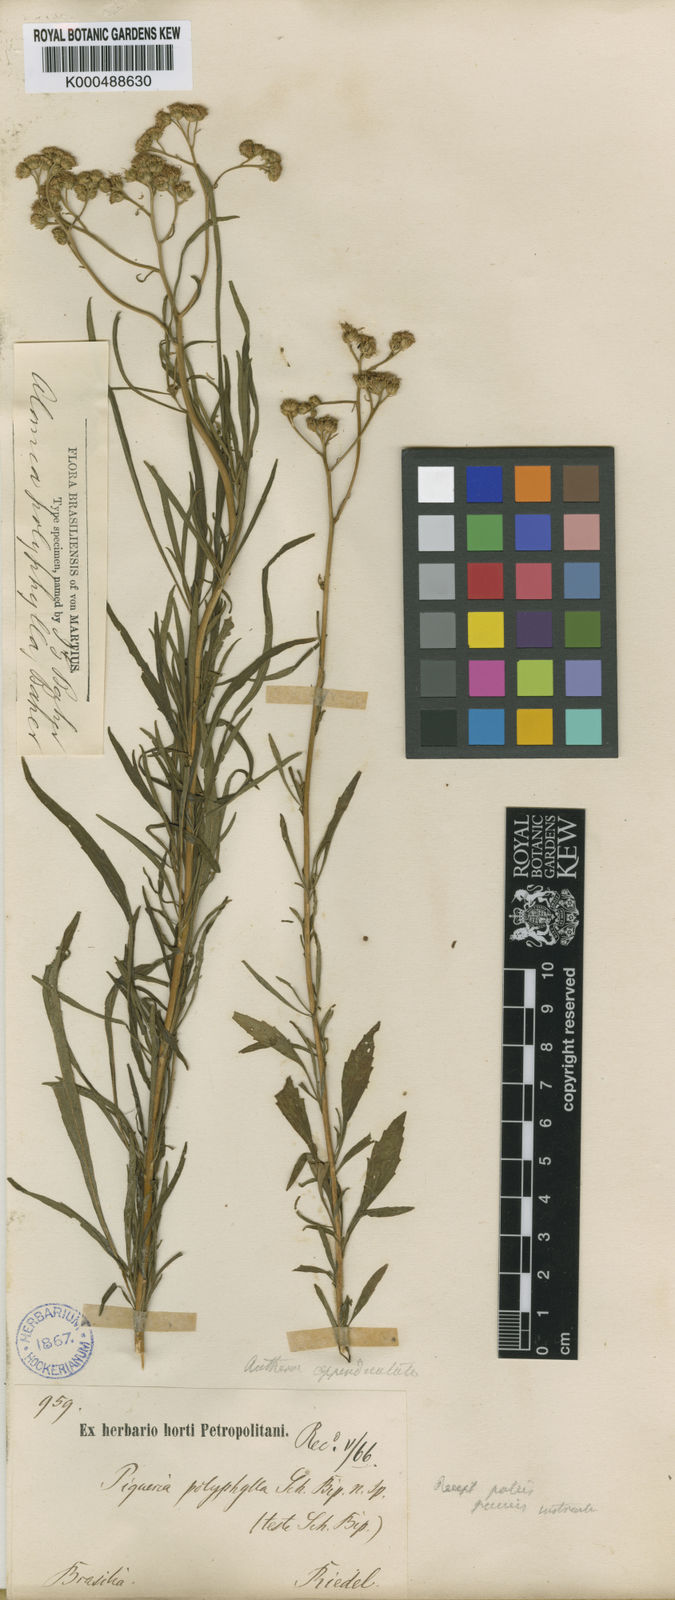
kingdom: Plantae
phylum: Tracheophyta
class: Magnoliopsida
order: Asterales
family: Asteraceae
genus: Ageratum
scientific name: Ageratum fastigiatum
